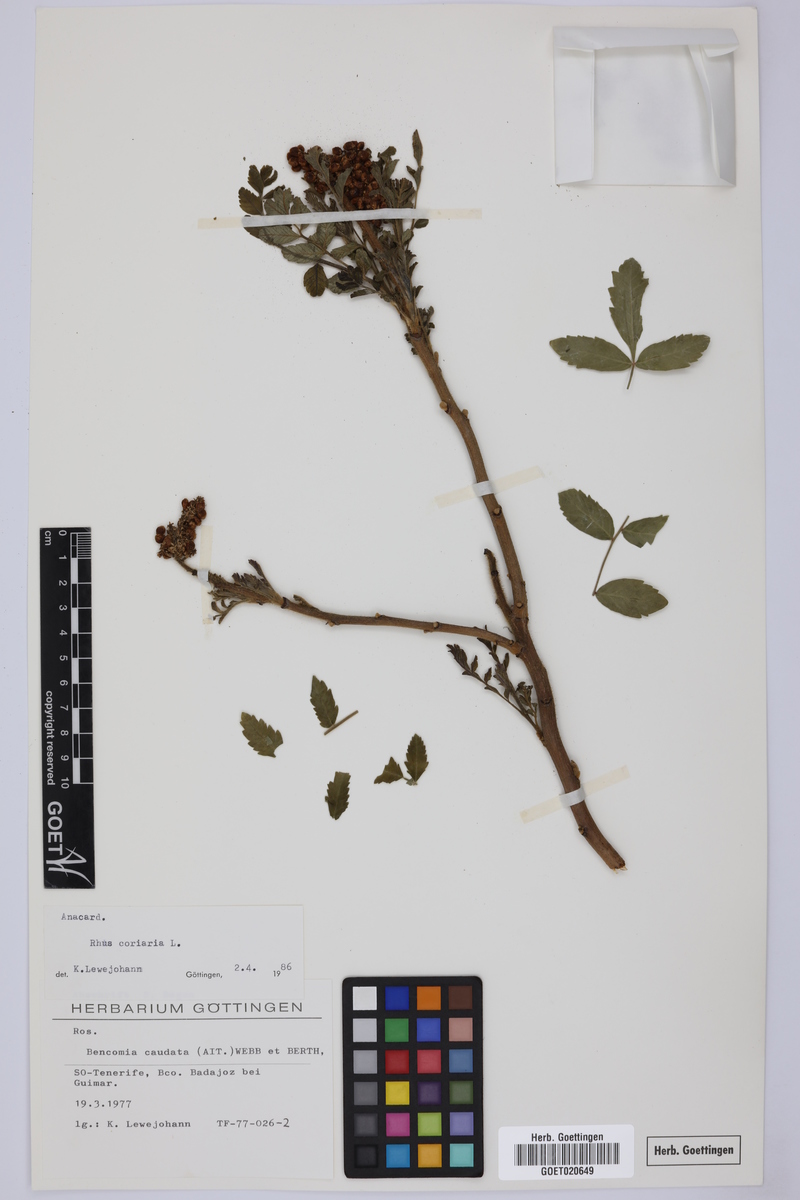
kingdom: Plantae
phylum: Tracheophyta
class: Magnoliopsida
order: Sapindales
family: Anacardiaceae
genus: Rhus
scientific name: Rhus coriaria
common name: Tanner's sumach
